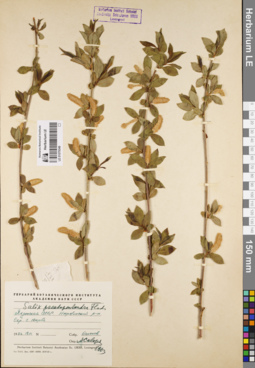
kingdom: Plantae
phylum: Tracheophyta
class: Magnoliopsida
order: Malpighiales
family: Salicaceae
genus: Salix
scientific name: Salix pseudopentandra
